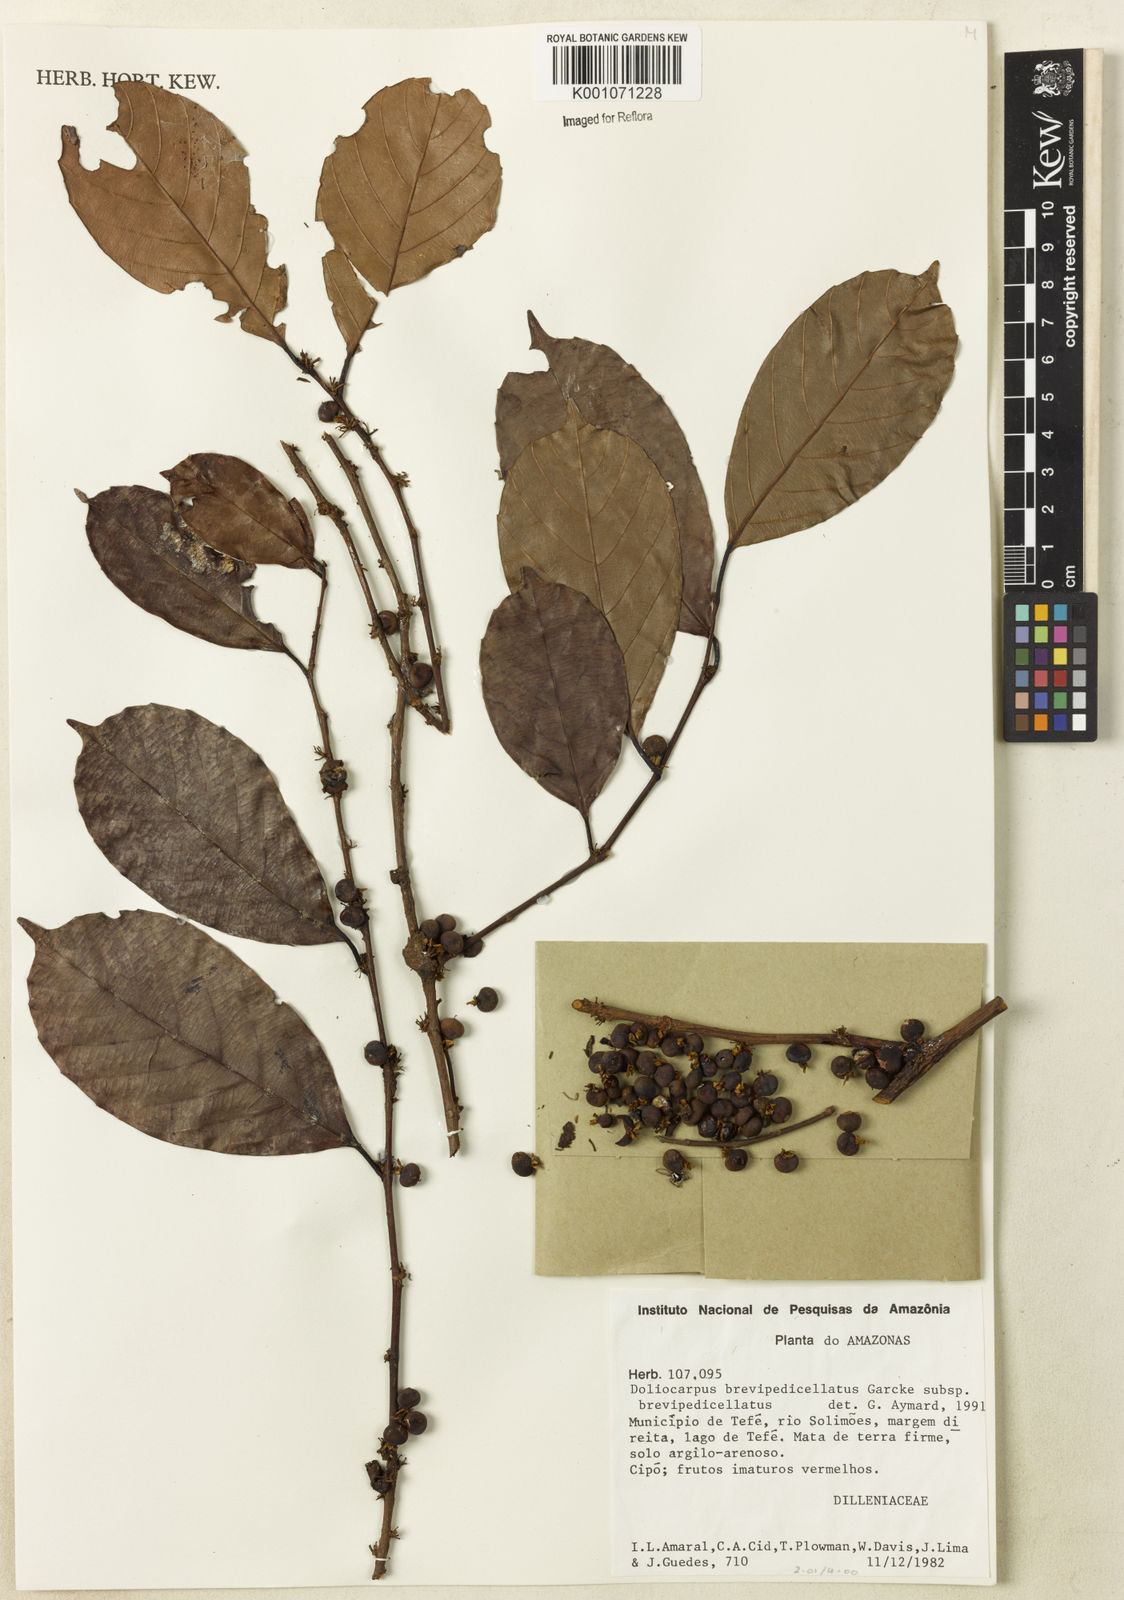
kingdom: Plantae
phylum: Tracheophyta
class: Magnoliopsida
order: Dilleniales
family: Dilleniaceae
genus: Doliocarpus
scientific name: Doliocarpus brevipedicellatus
